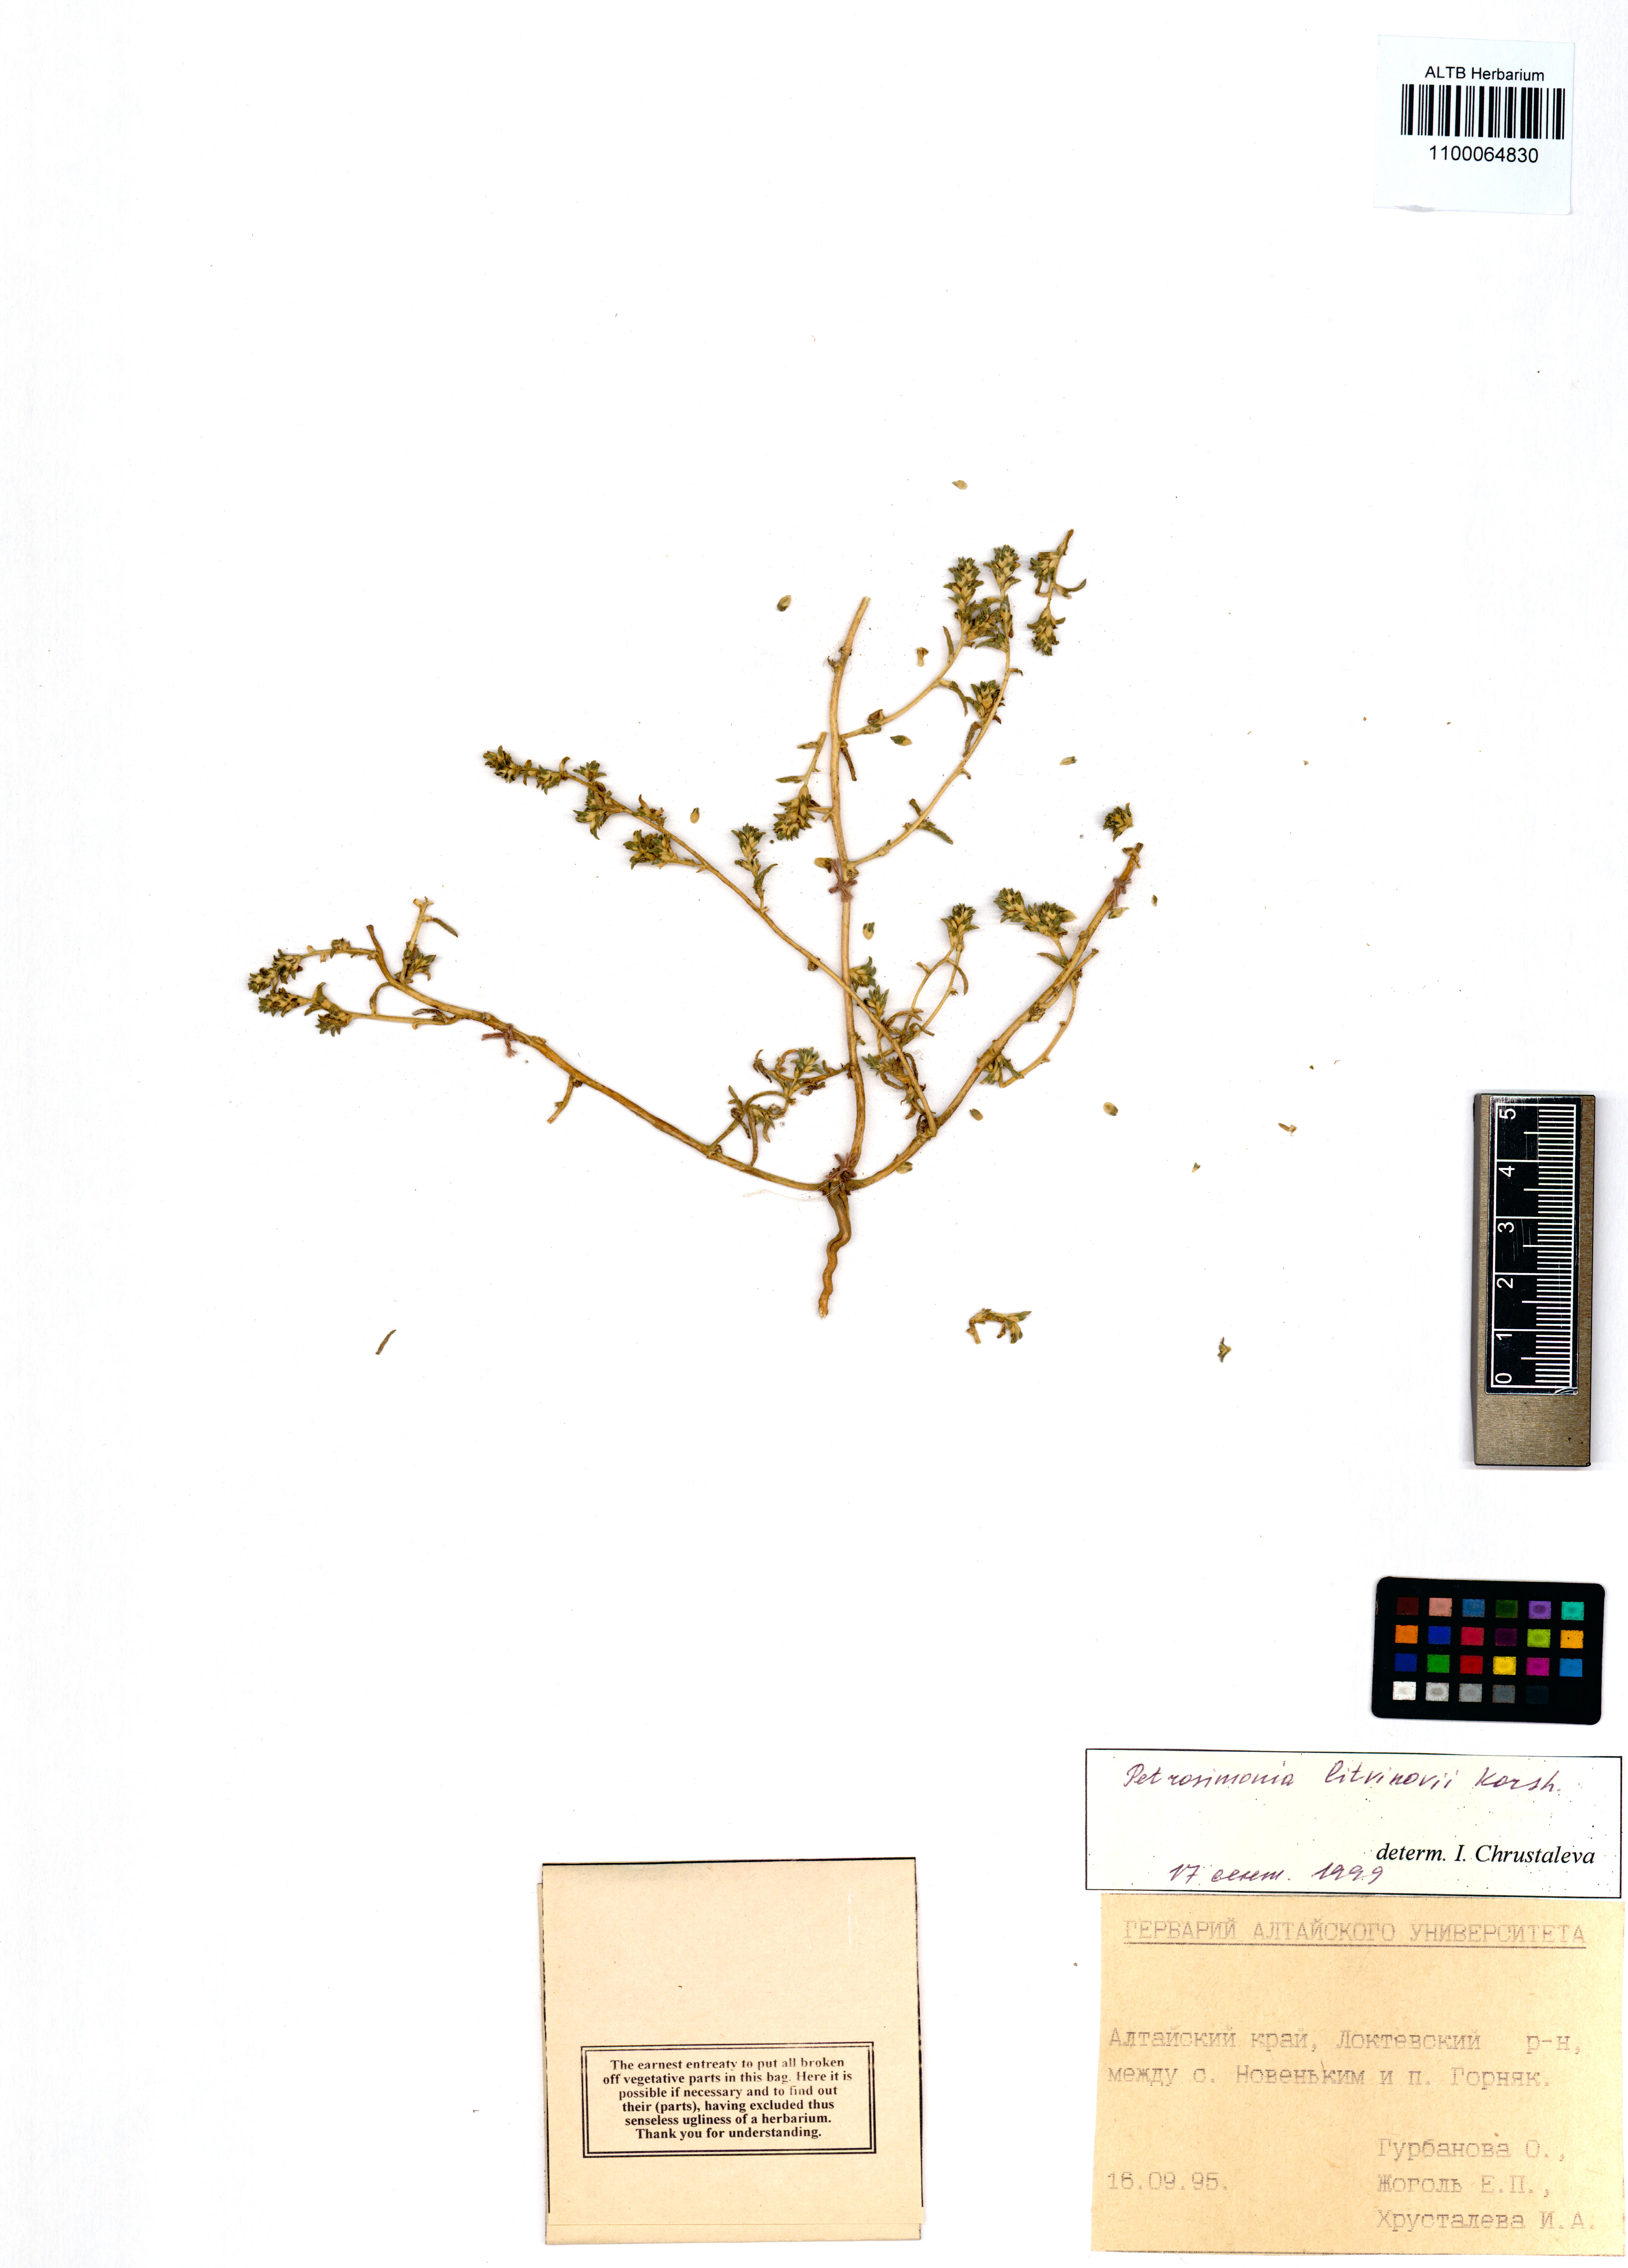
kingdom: Plantae
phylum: Tracheophyta
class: Magnoliopsida
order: Caryophyllales
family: Amaranthaceae
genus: Petrosimonia
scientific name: Petrosimonia litvinowi
